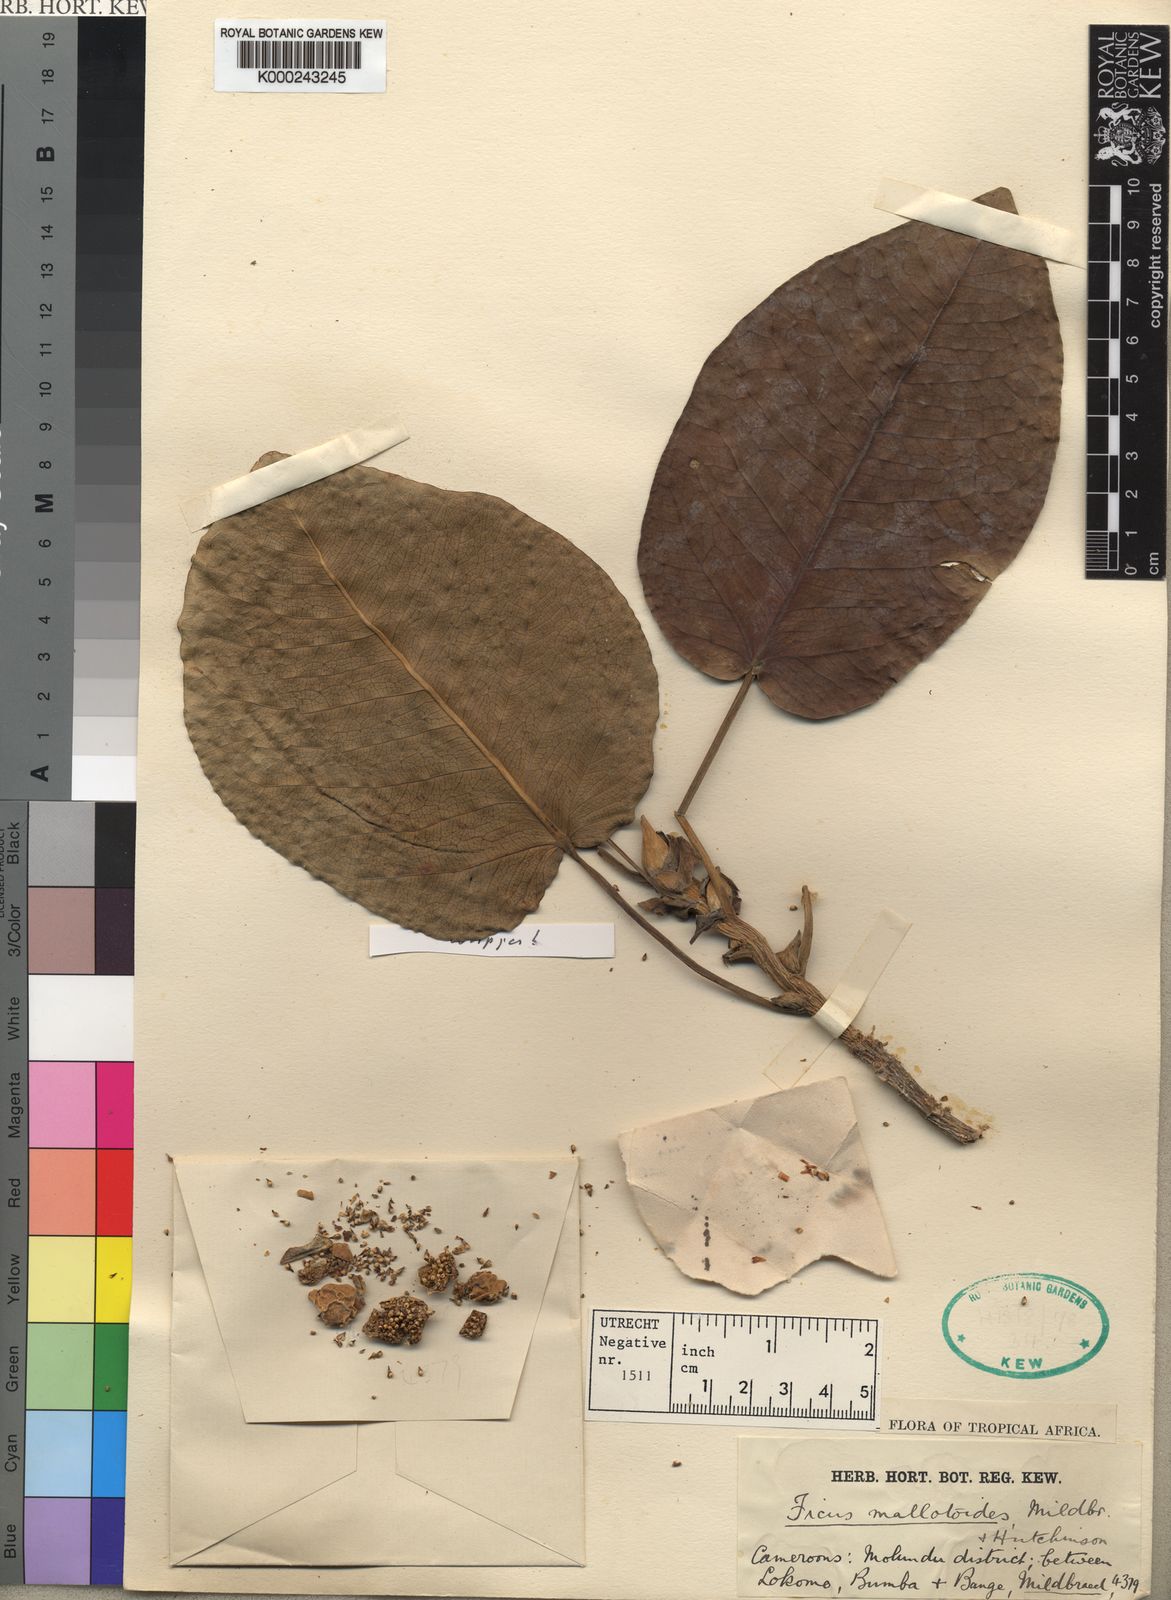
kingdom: Plantae
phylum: Tracheophyta
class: Magnoliopsida
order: Rosales
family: Moraceae
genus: Ficus
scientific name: Ficus calyptrata
